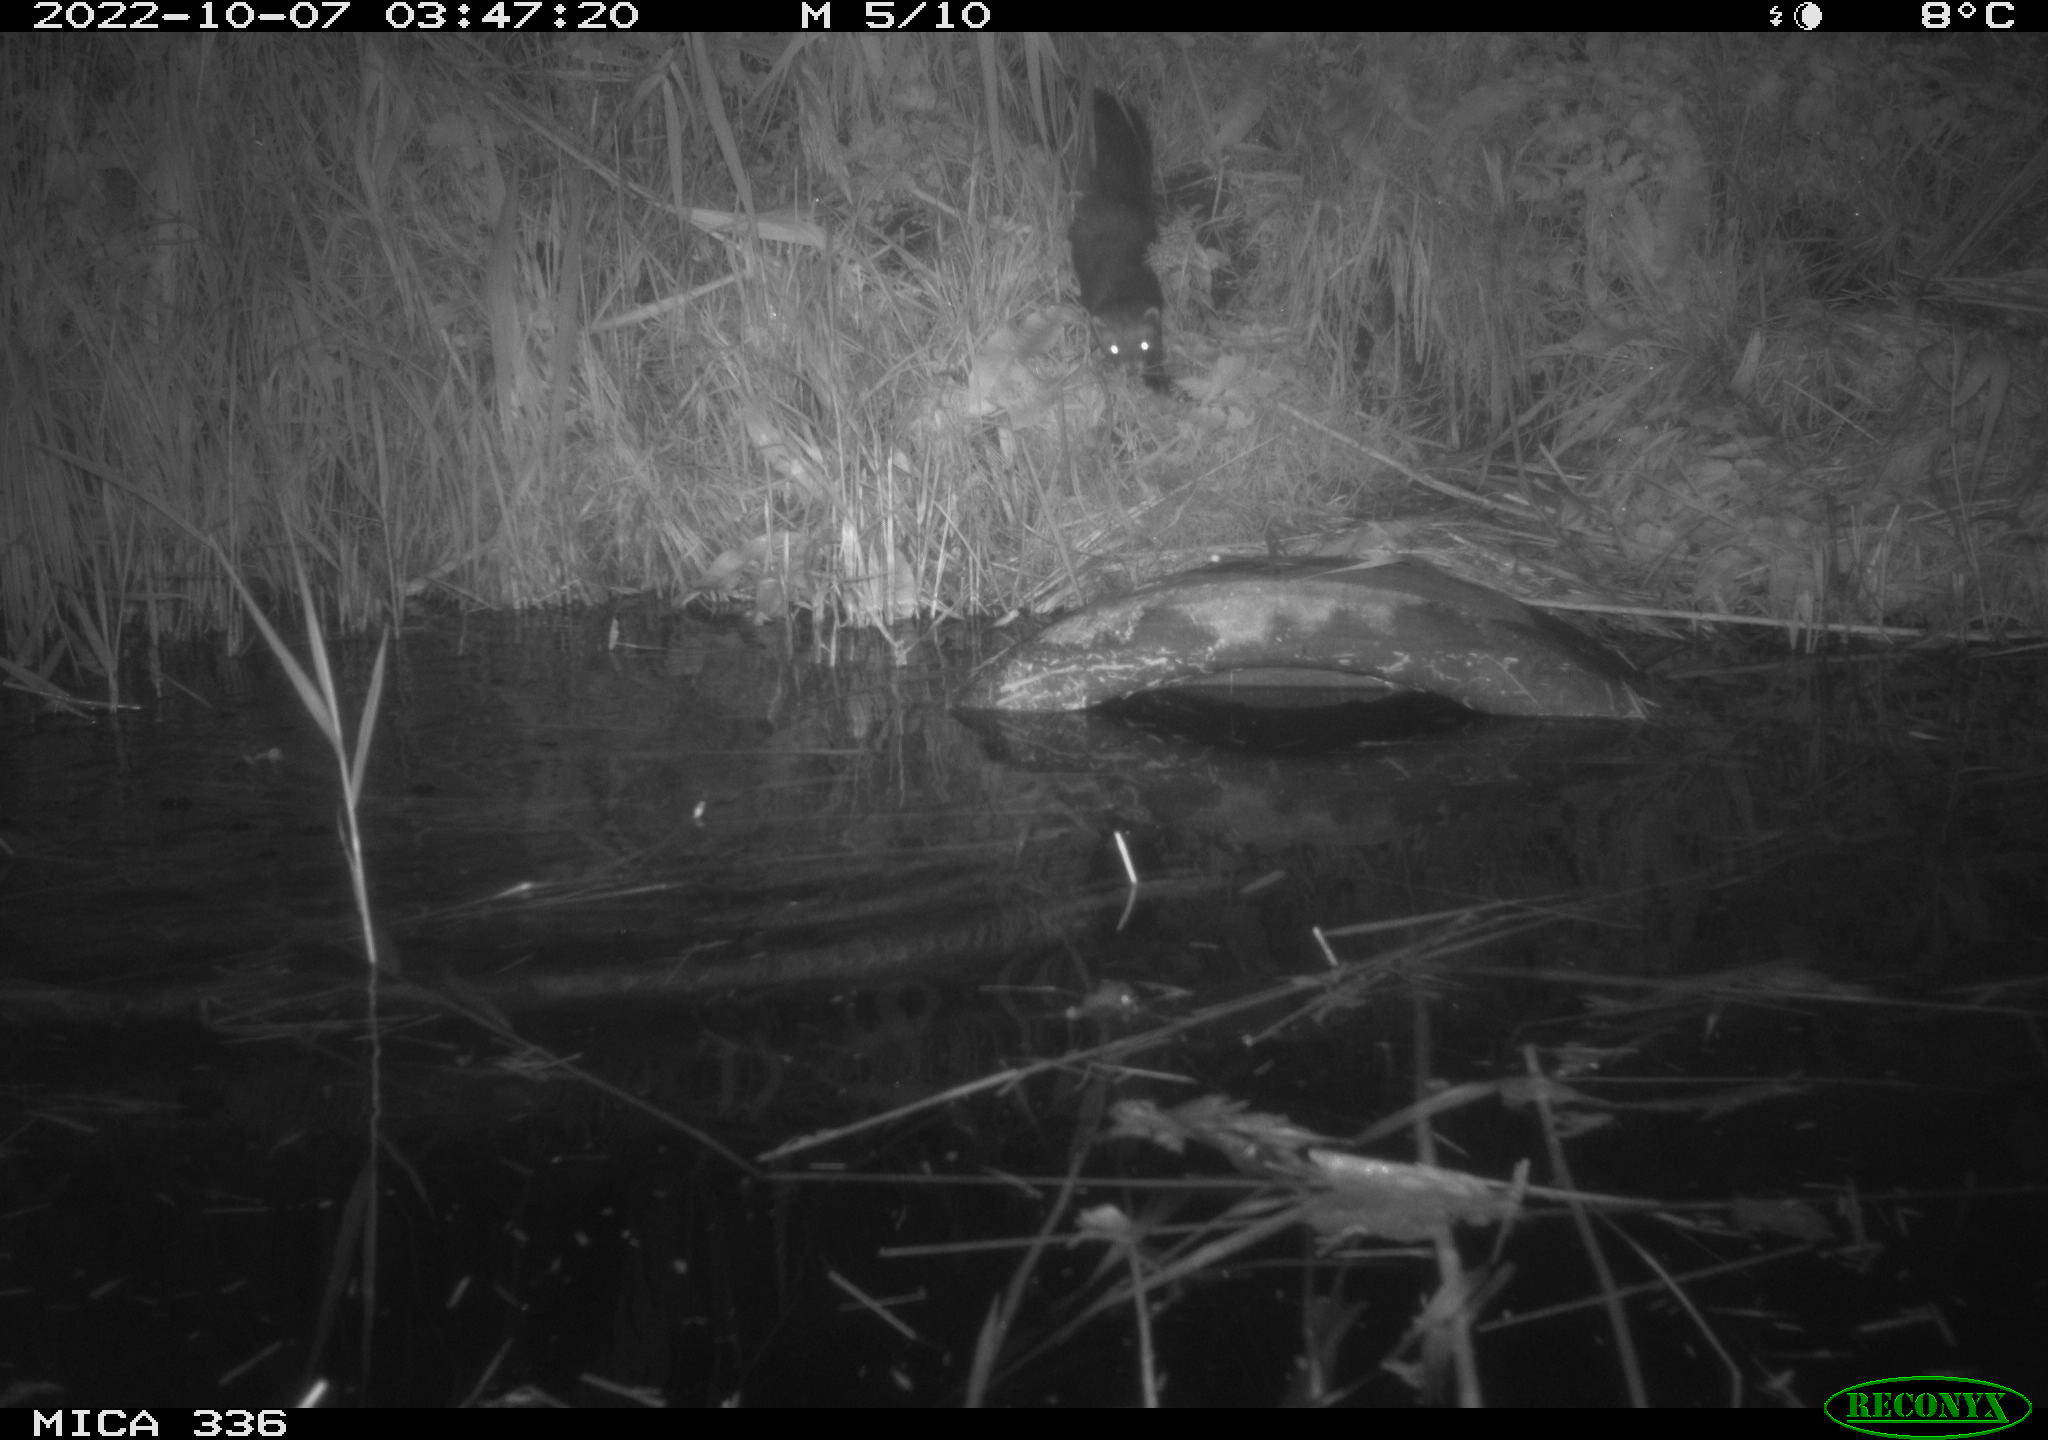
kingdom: Animalia
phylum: Chordata
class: Mammalia
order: Rodentia
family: Muridae
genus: Rattus
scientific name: Rattus norvegicus
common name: Brown rat
